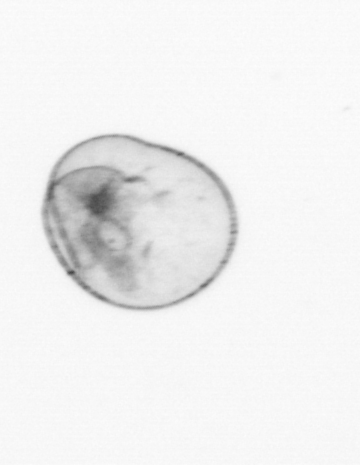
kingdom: Chromista
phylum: Myzozoa
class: Dinophyceae
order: Noctilucales
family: Noctilucaceae
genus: Noctiluca
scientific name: Noctiluca scintillans
